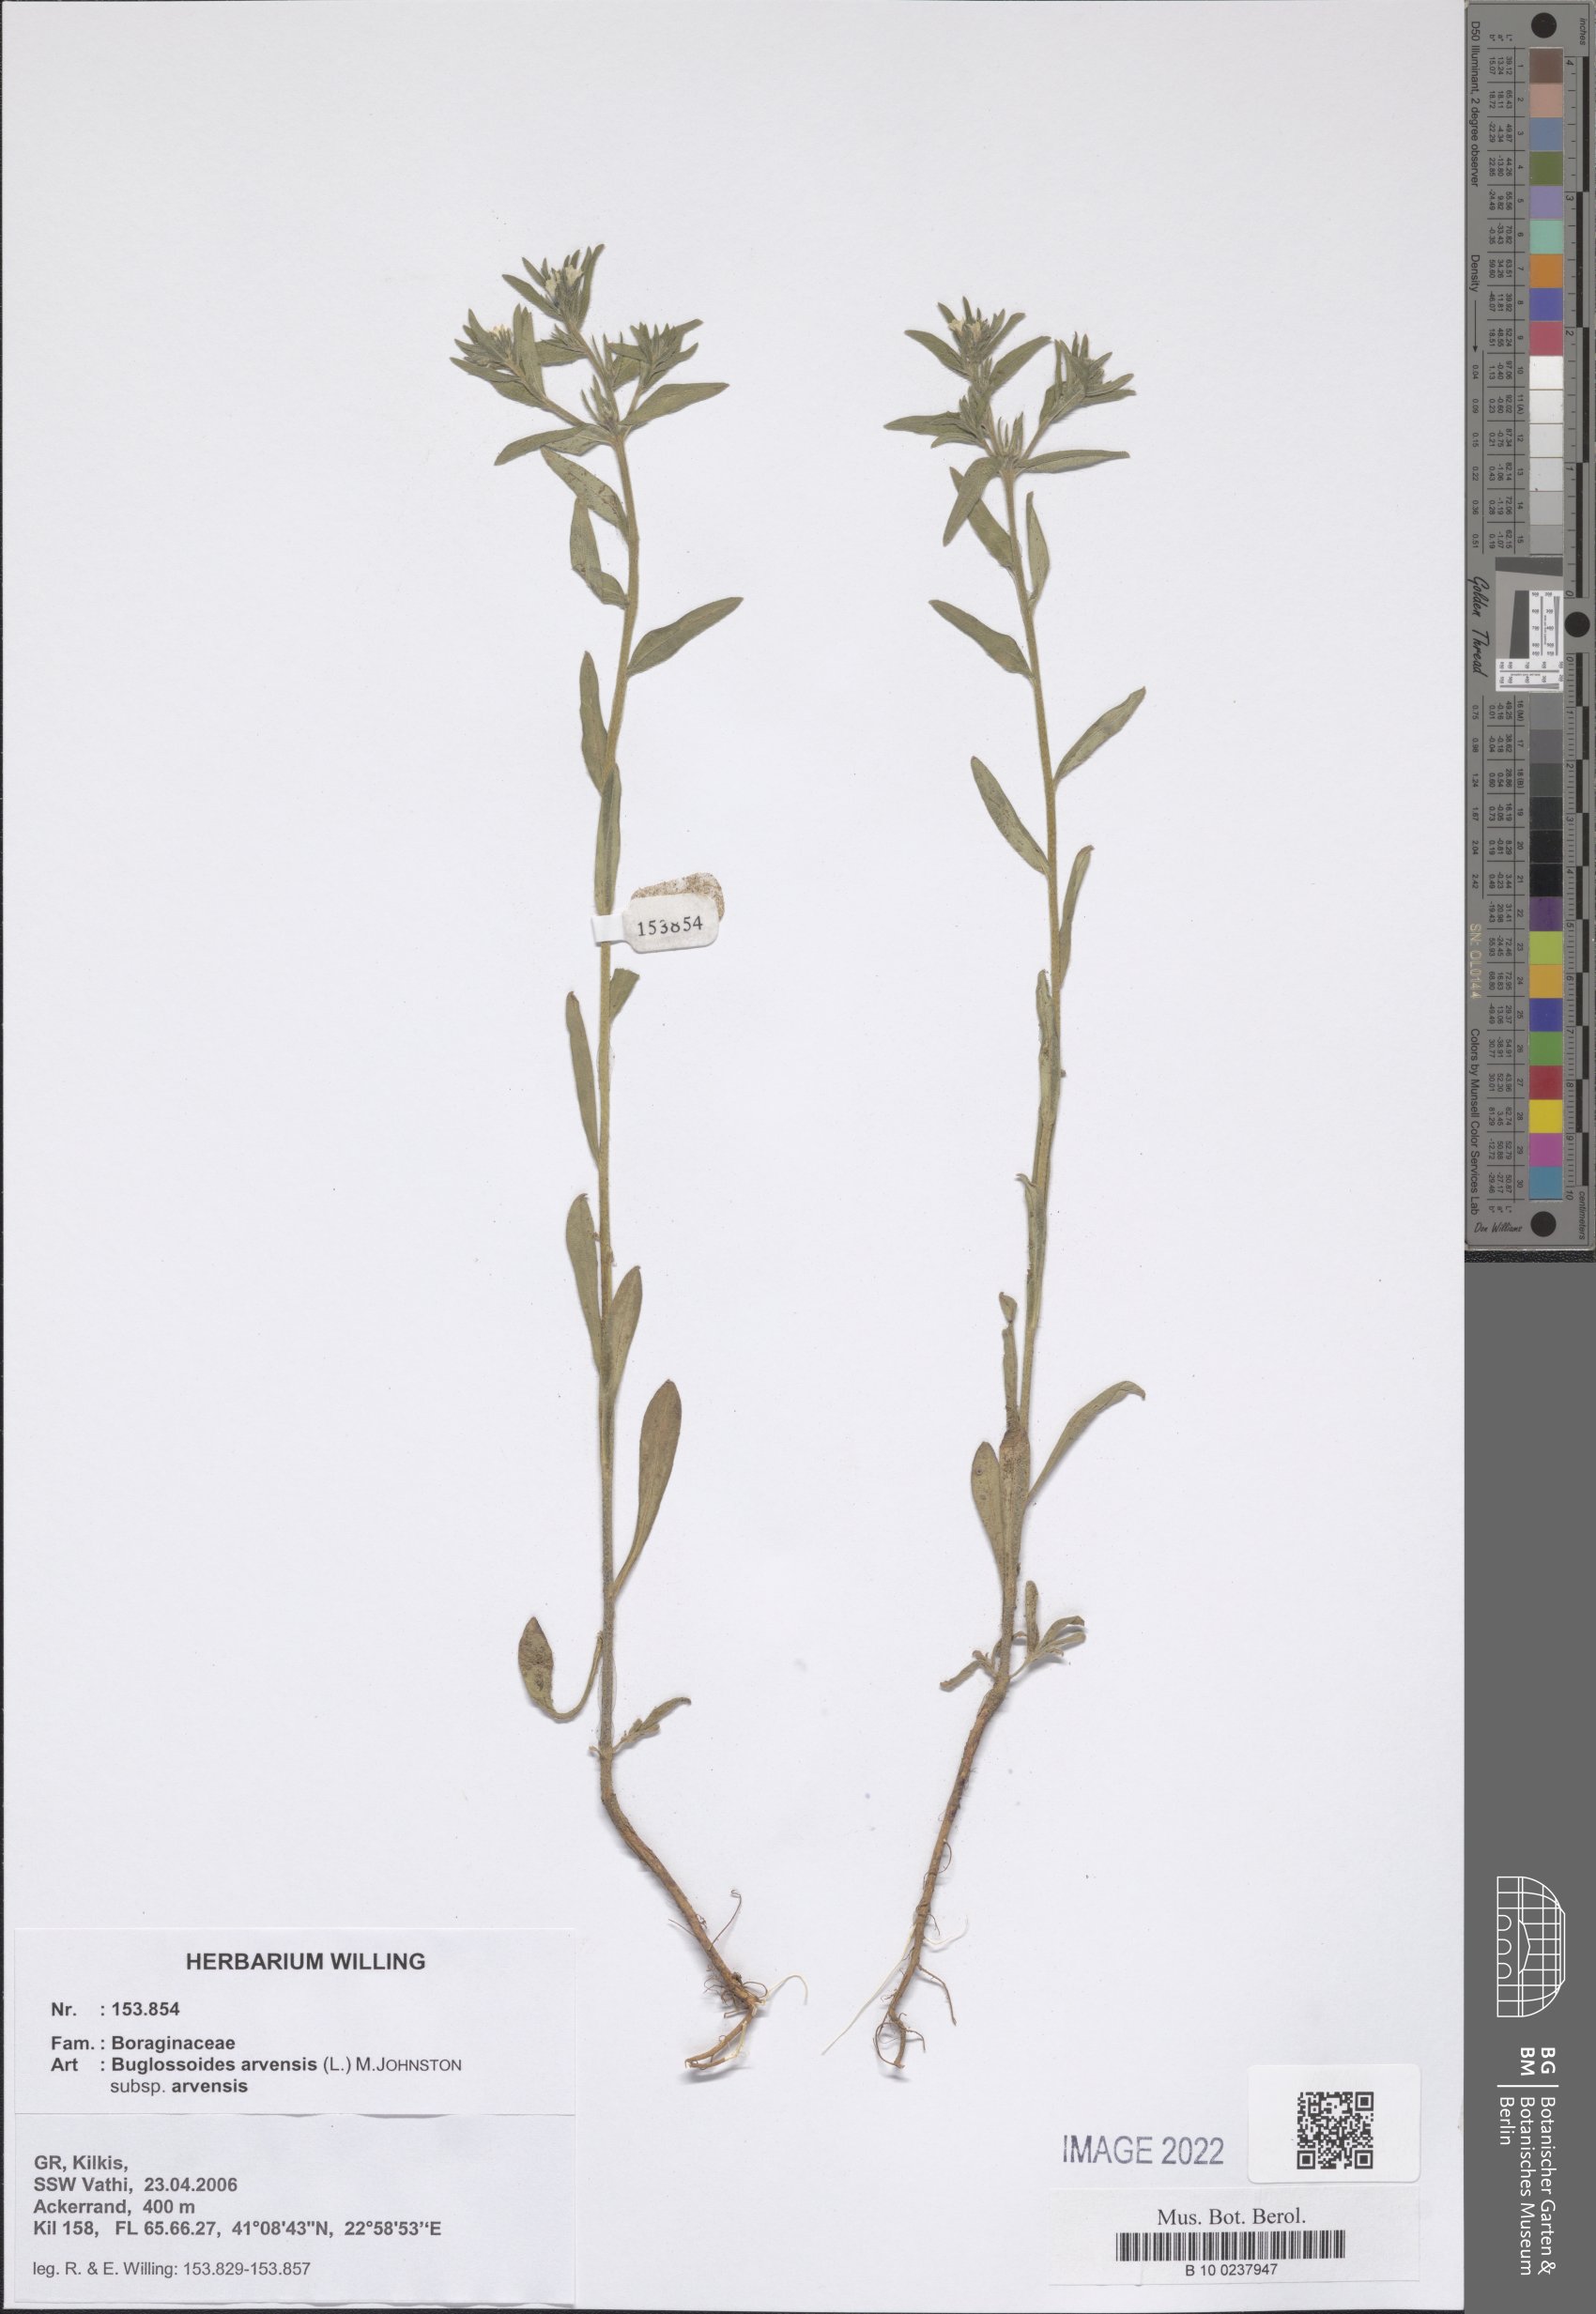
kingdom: Plantae
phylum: Tracheophyta
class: Magnoliopsida
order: Boraginales
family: Boraginaceae
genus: Buglossoides
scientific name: Buglossoides arvensis
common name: Corn gromwell
